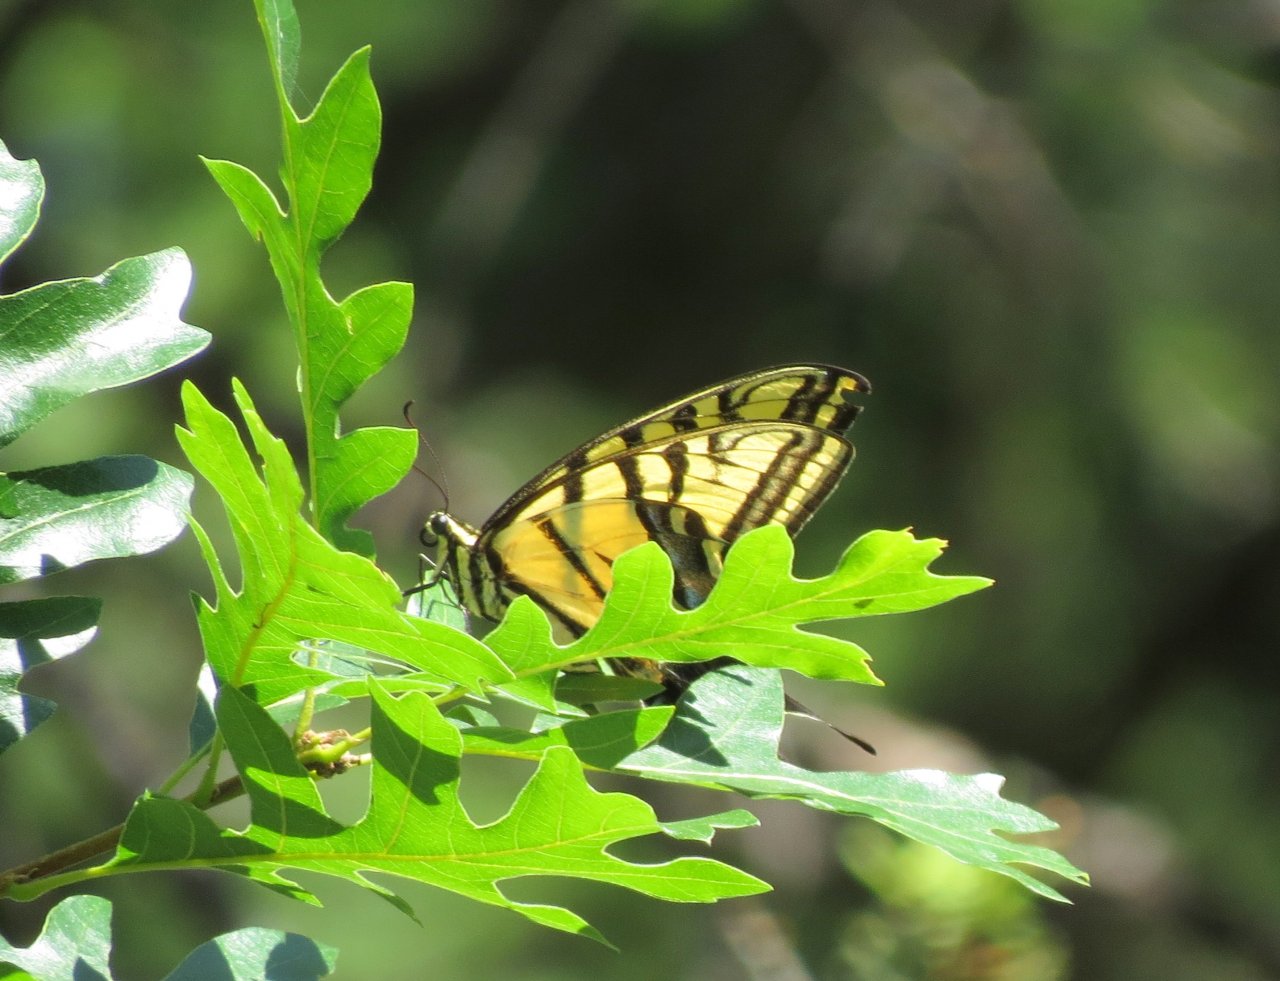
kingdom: Animalia
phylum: Arthropoda
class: Insecta
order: Lepidoptera
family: Papilionidae
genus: Papilio
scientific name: Papilio multicaudata
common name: Two-tailed Swallowtail
